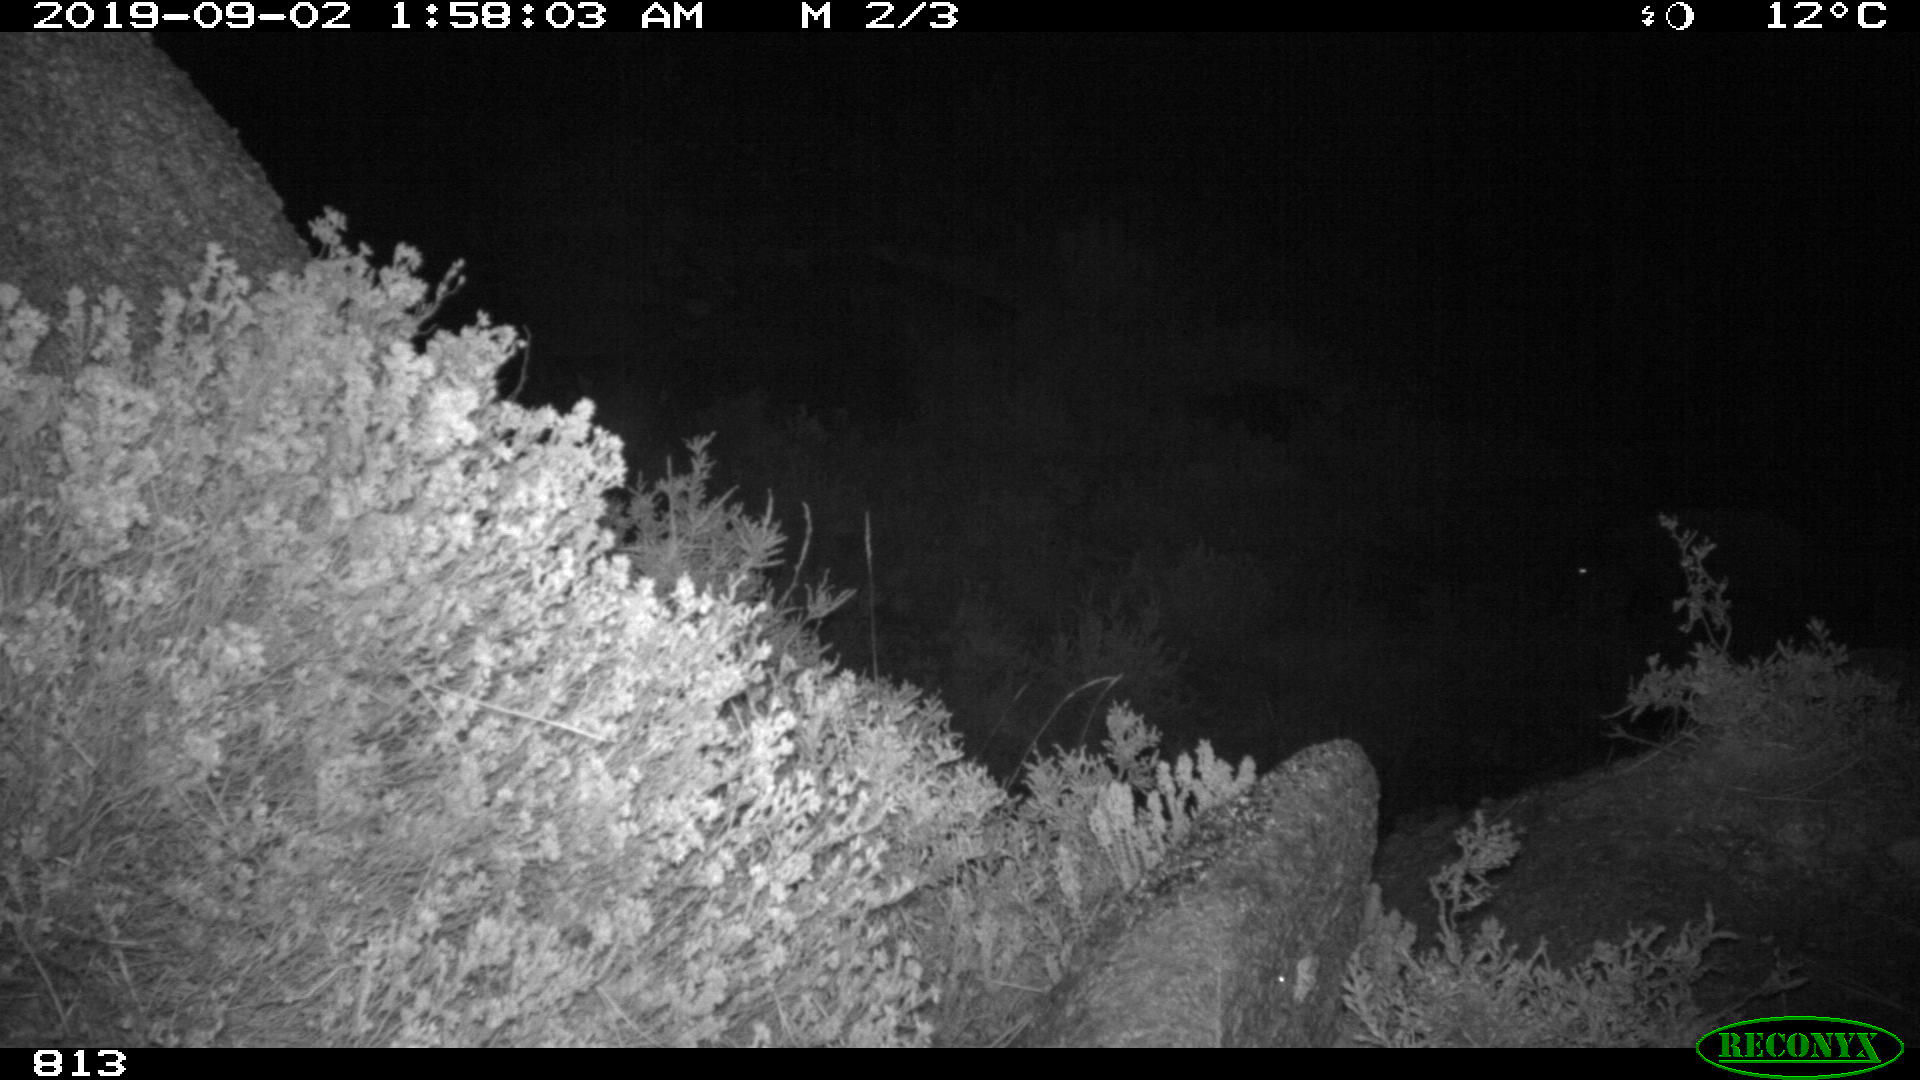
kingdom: Animalia
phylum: Chordata
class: Mammalia
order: Artiodactyla
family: Suidae
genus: Sus
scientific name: Sus scrofa
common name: Wild boar
